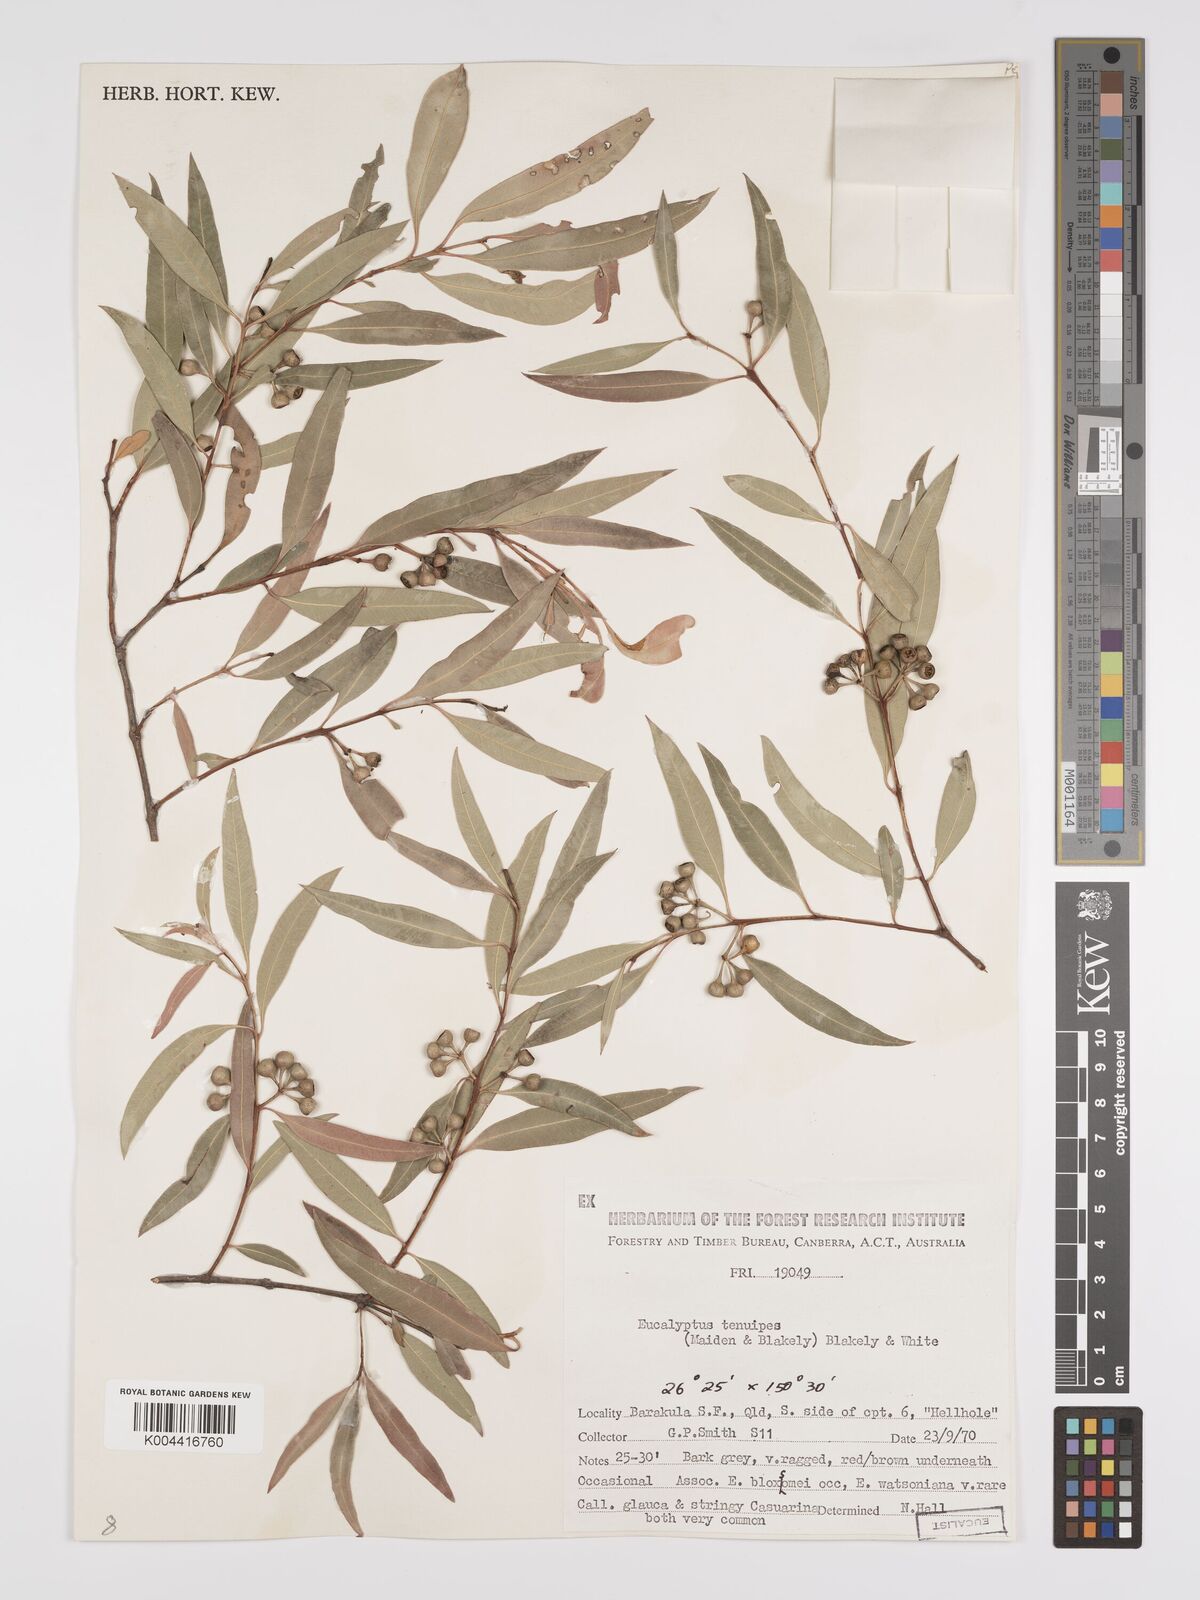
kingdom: Plantae
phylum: Tracheophyta
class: Magnoliopsida
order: Myrtales
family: Myrtaceae
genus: Eucalyptus
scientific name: Eucalyptus tenuipes
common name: Narrow-leaved white mahogany
